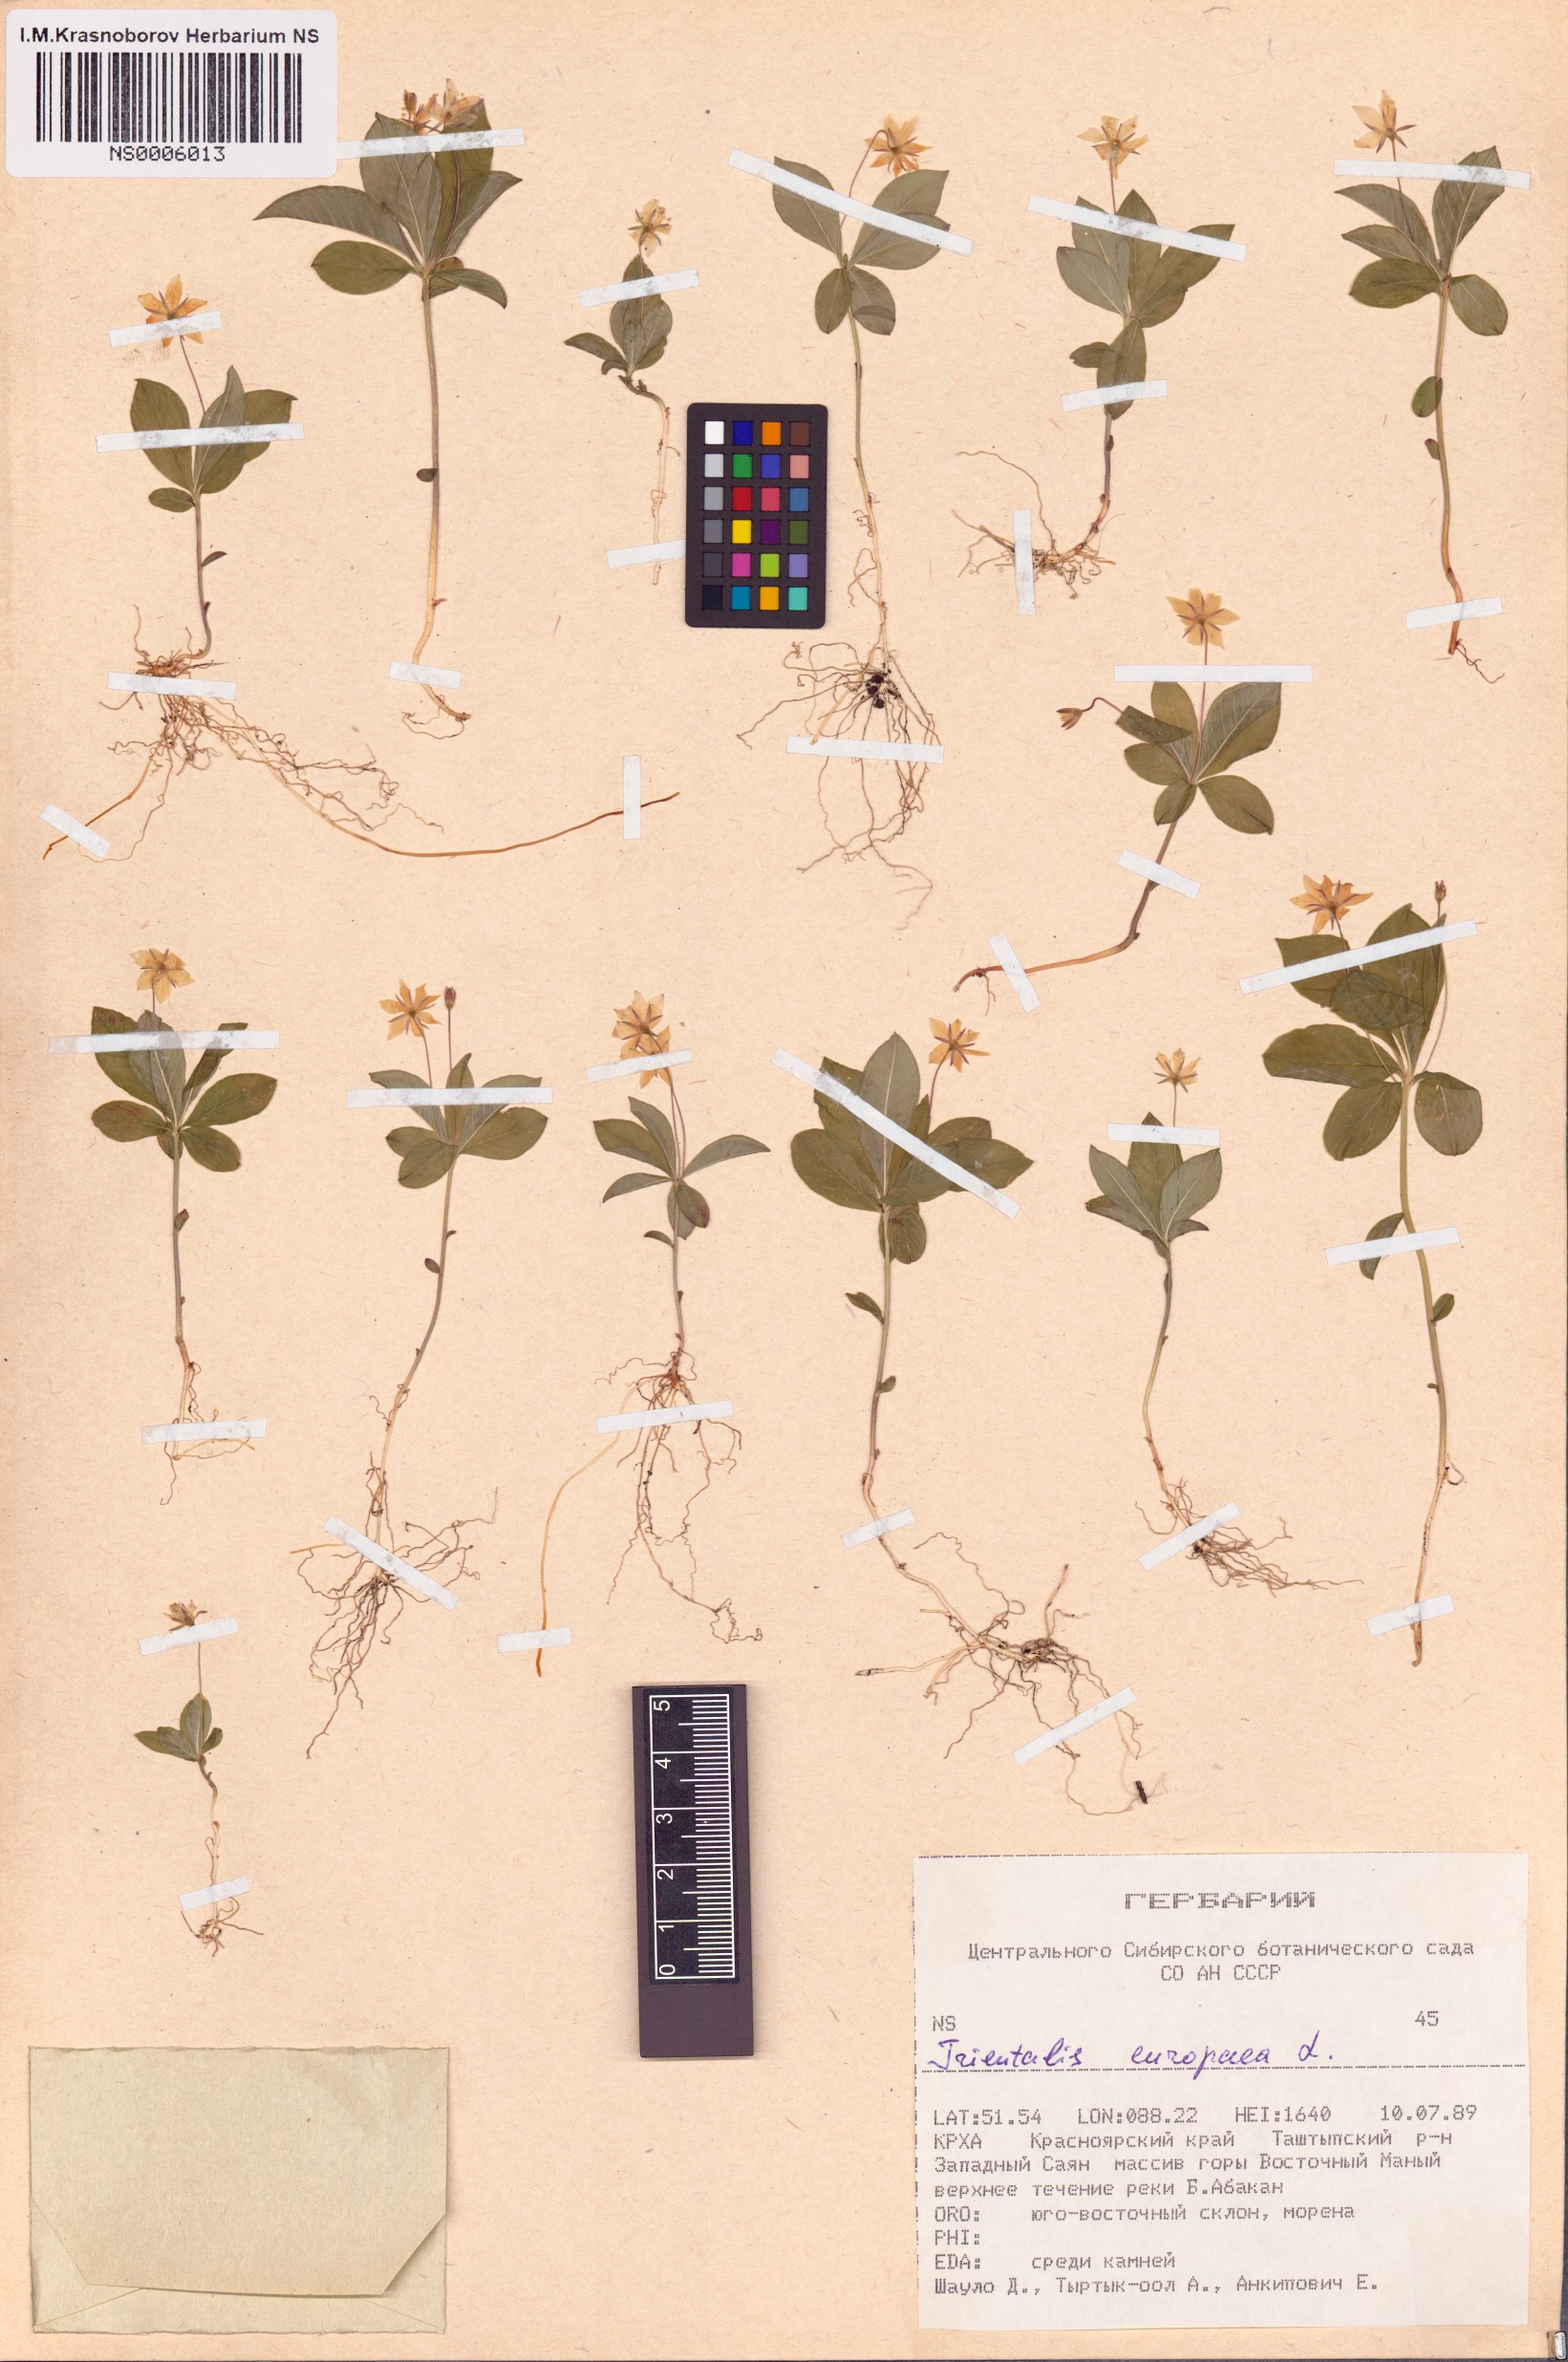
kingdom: Plantae
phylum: Tracheophyta
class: Magnoliopsida
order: Ericales
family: Primulaceae
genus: Lysimachia
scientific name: Lysimachia europaea
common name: Arctic starflower
